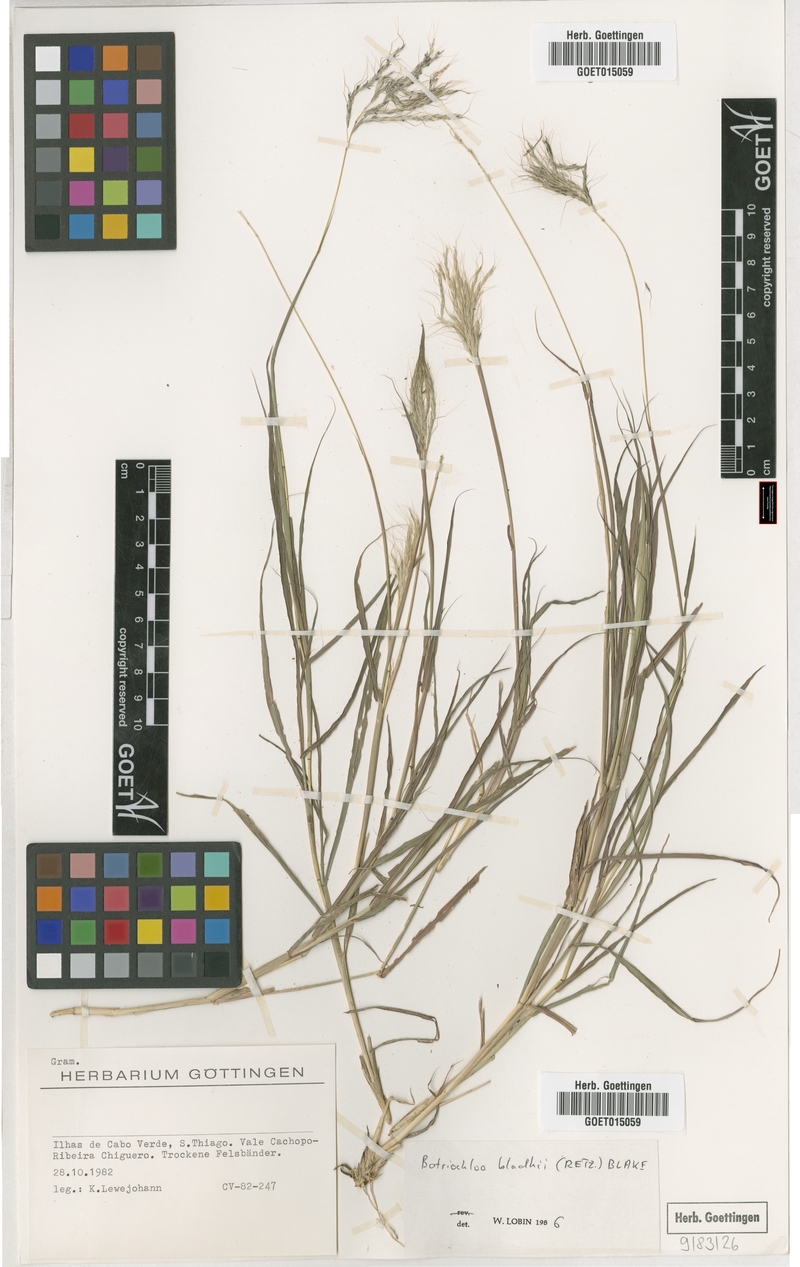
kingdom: Plantae
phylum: Tracheophyta
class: Liliopsida
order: Poales
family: Poaceae
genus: Bothriochloa
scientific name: Bothriochloa bladhii
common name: Caucasian bluestem
